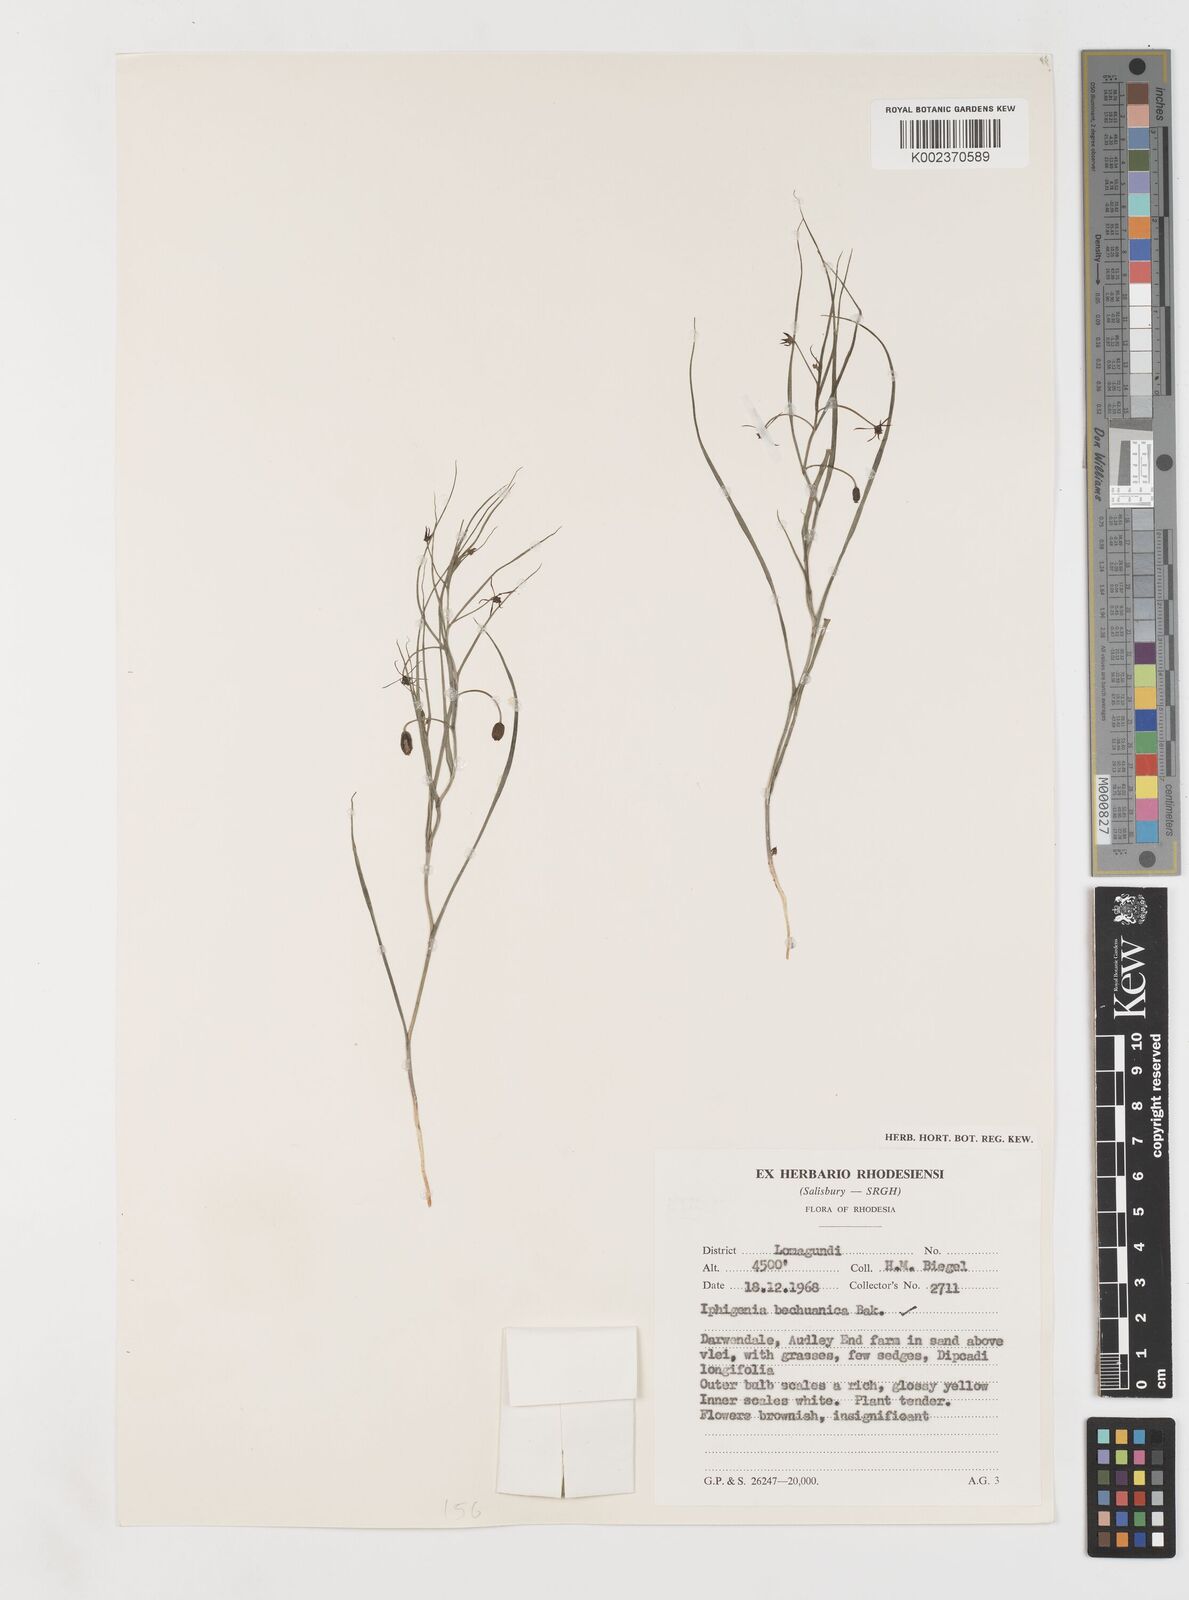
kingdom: Plantae
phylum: Tracheophyta
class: Liliopsida
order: Liliales
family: Colchicaceae
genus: Iphigenia
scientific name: Iphigenia oliveri
